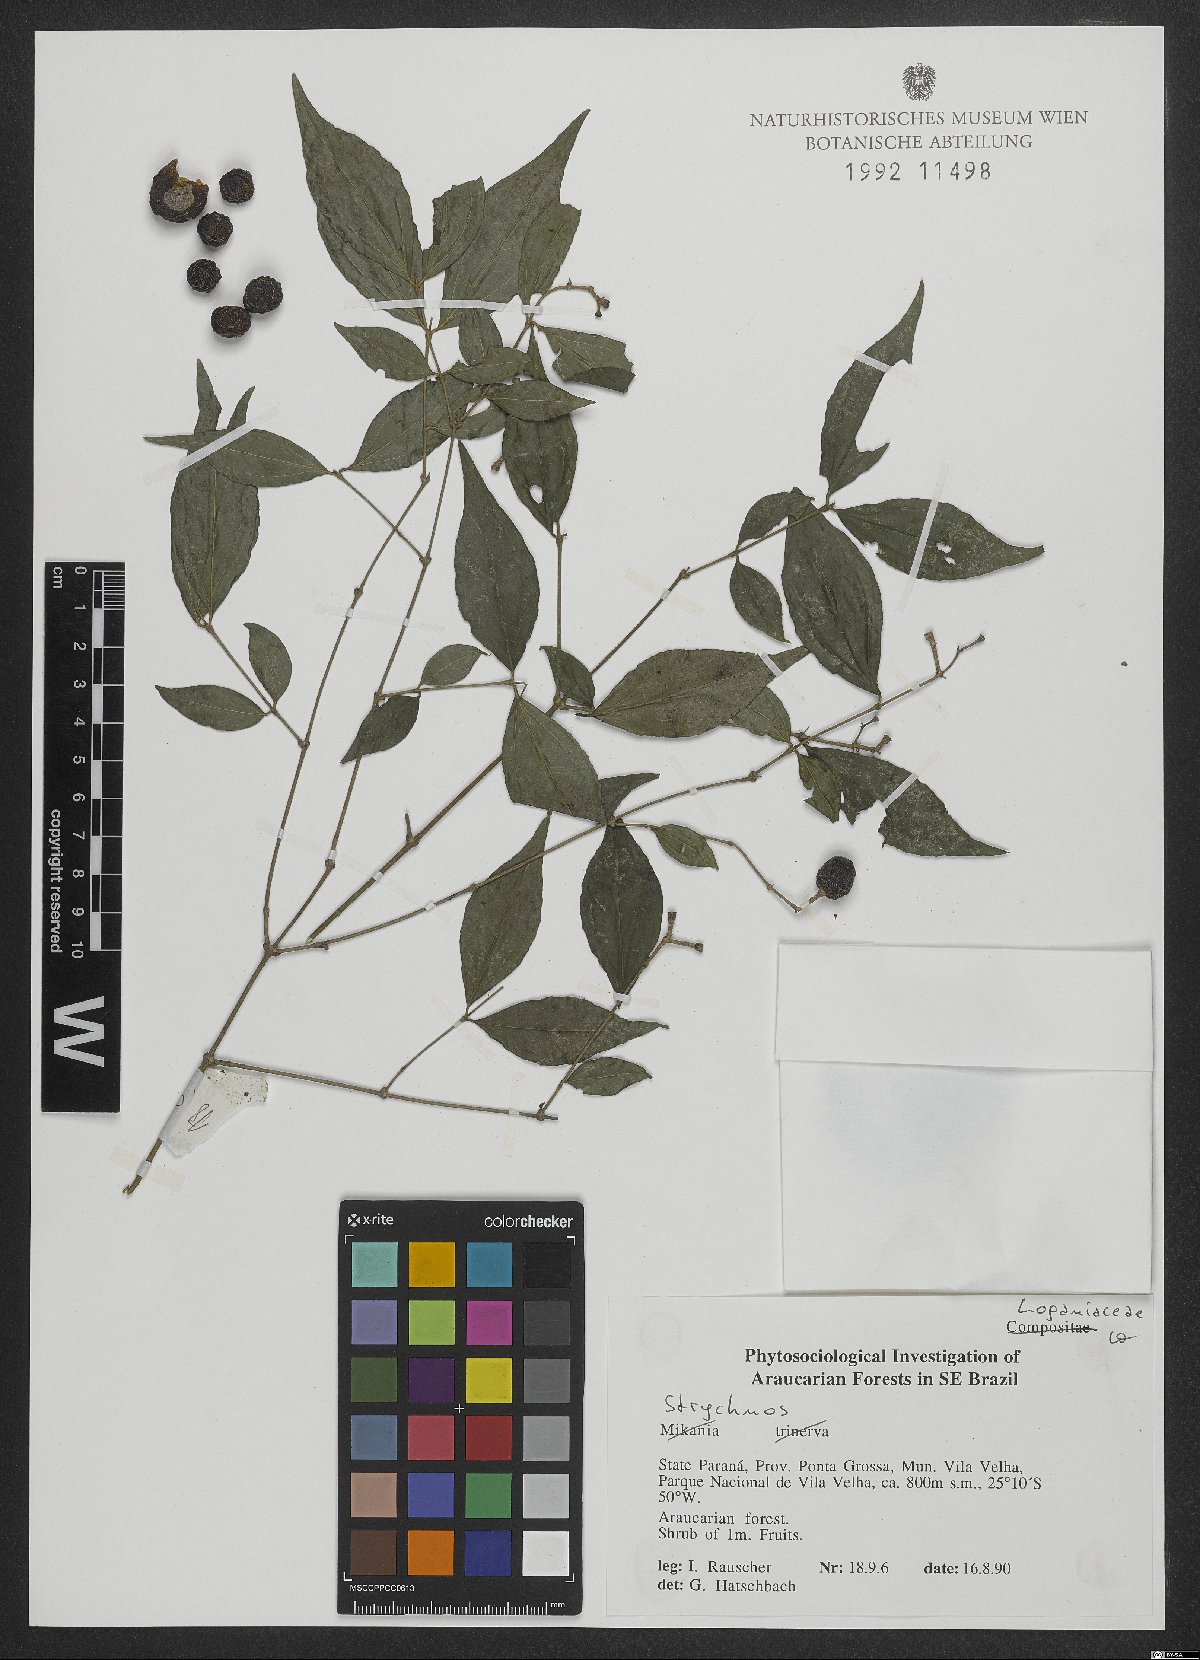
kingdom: Plantae
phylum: Tracheophyta
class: Magnoliopsida
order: Gentianales
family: Loganiaceae
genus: Strychnos
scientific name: Strychnos
